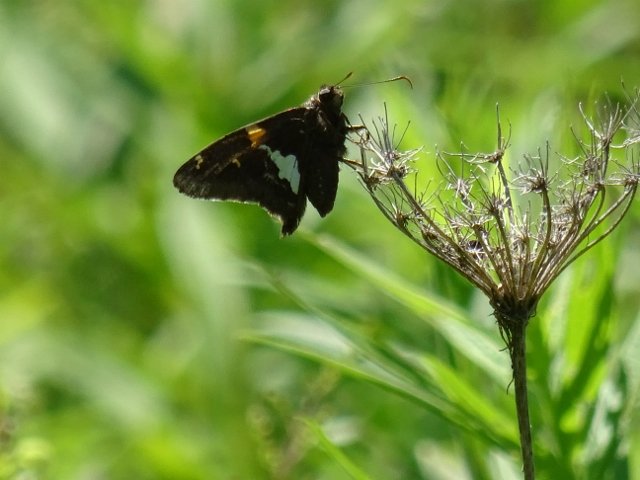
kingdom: Animalia
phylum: Arthropoda
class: Insecta
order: Lepidoptera
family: Hesperiidae
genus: Epargyreus
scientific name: Epargyreus clarus
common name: Silver-spotted Skipper
